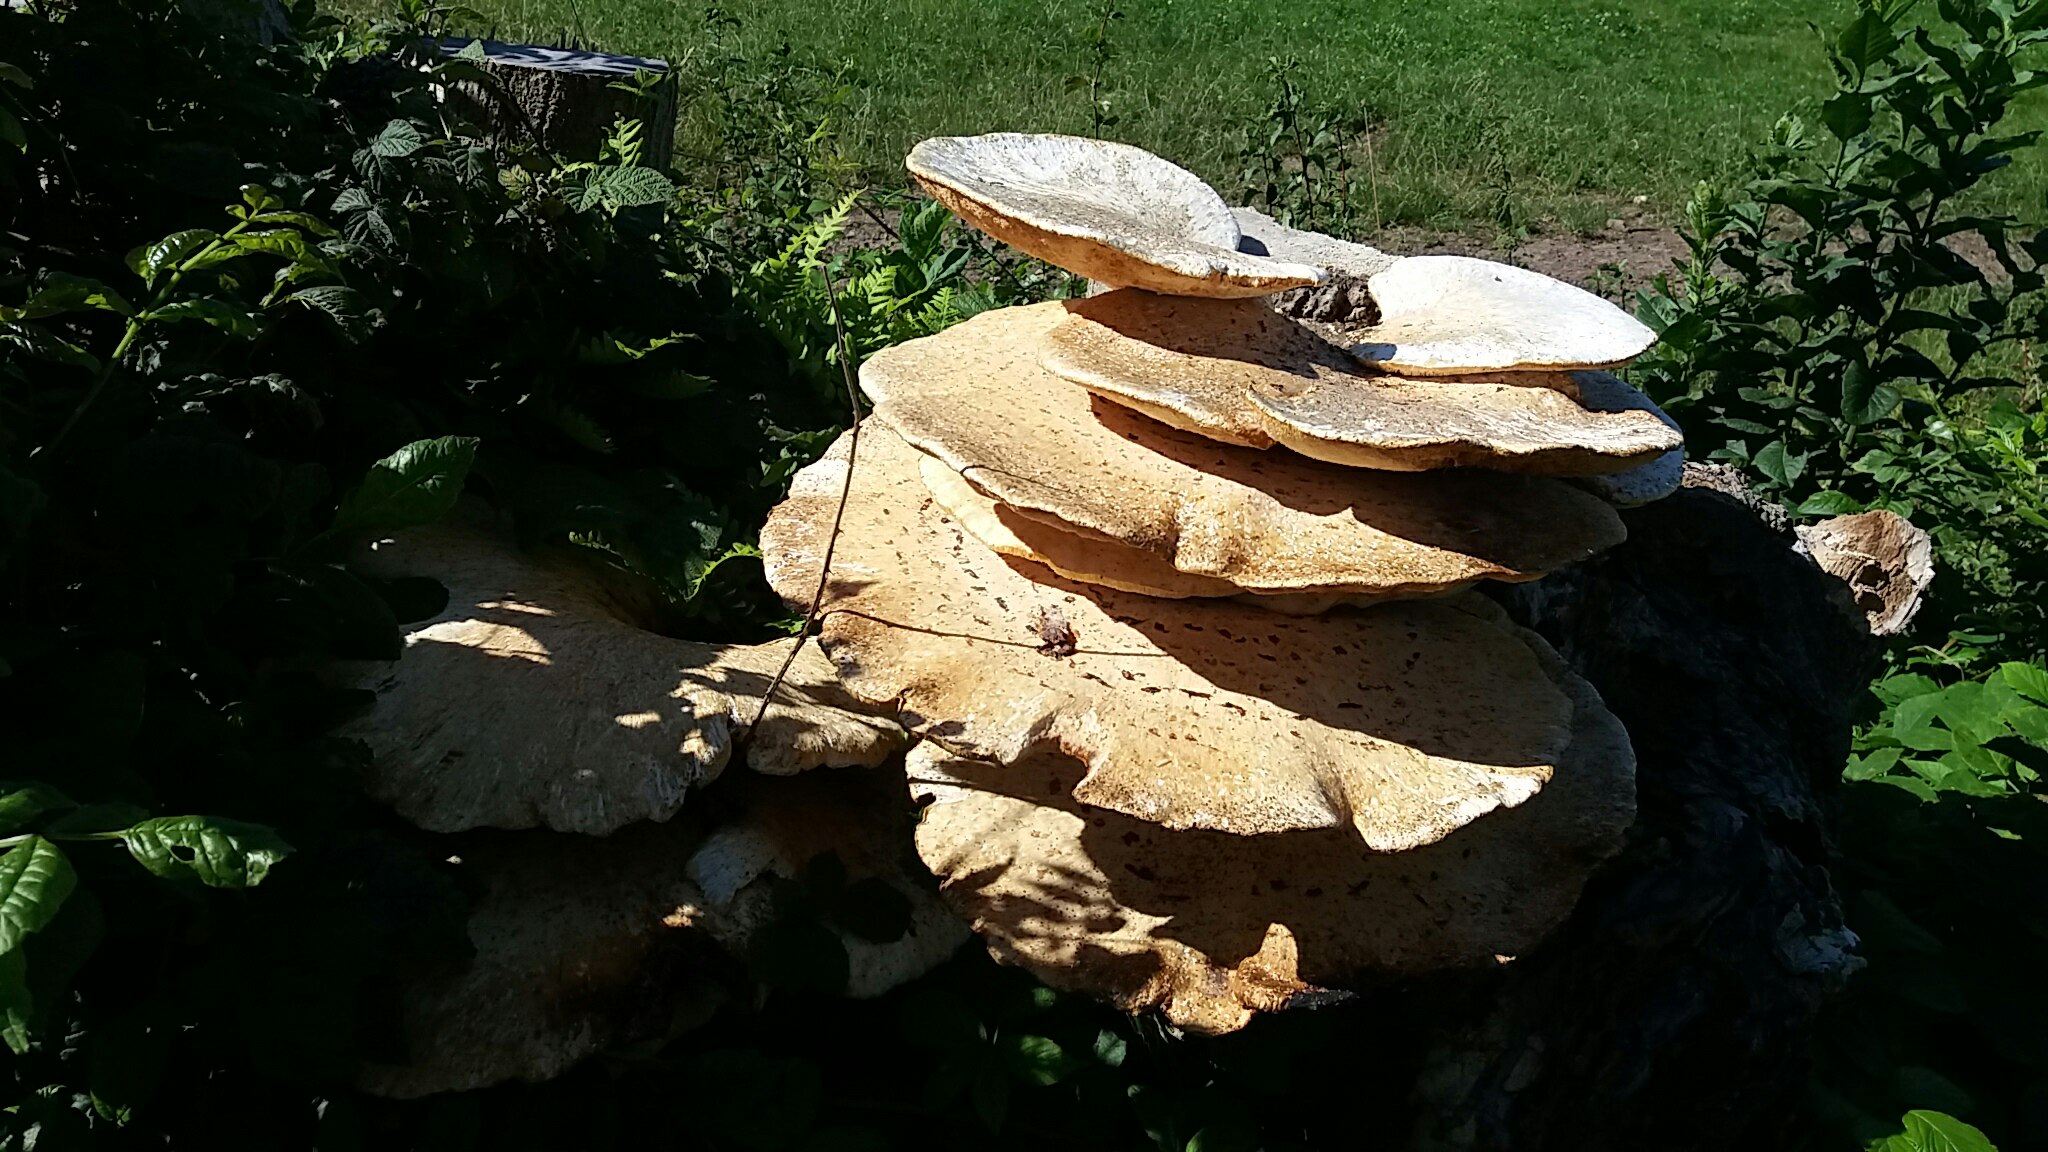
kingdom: Fungi
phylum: Basidiomycota
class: Agaricomycetes
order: Polyporales
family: Polyporaceae
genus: Cerioporus
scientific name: Cerioporus squamosus
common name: skællet stilkporesvamp
